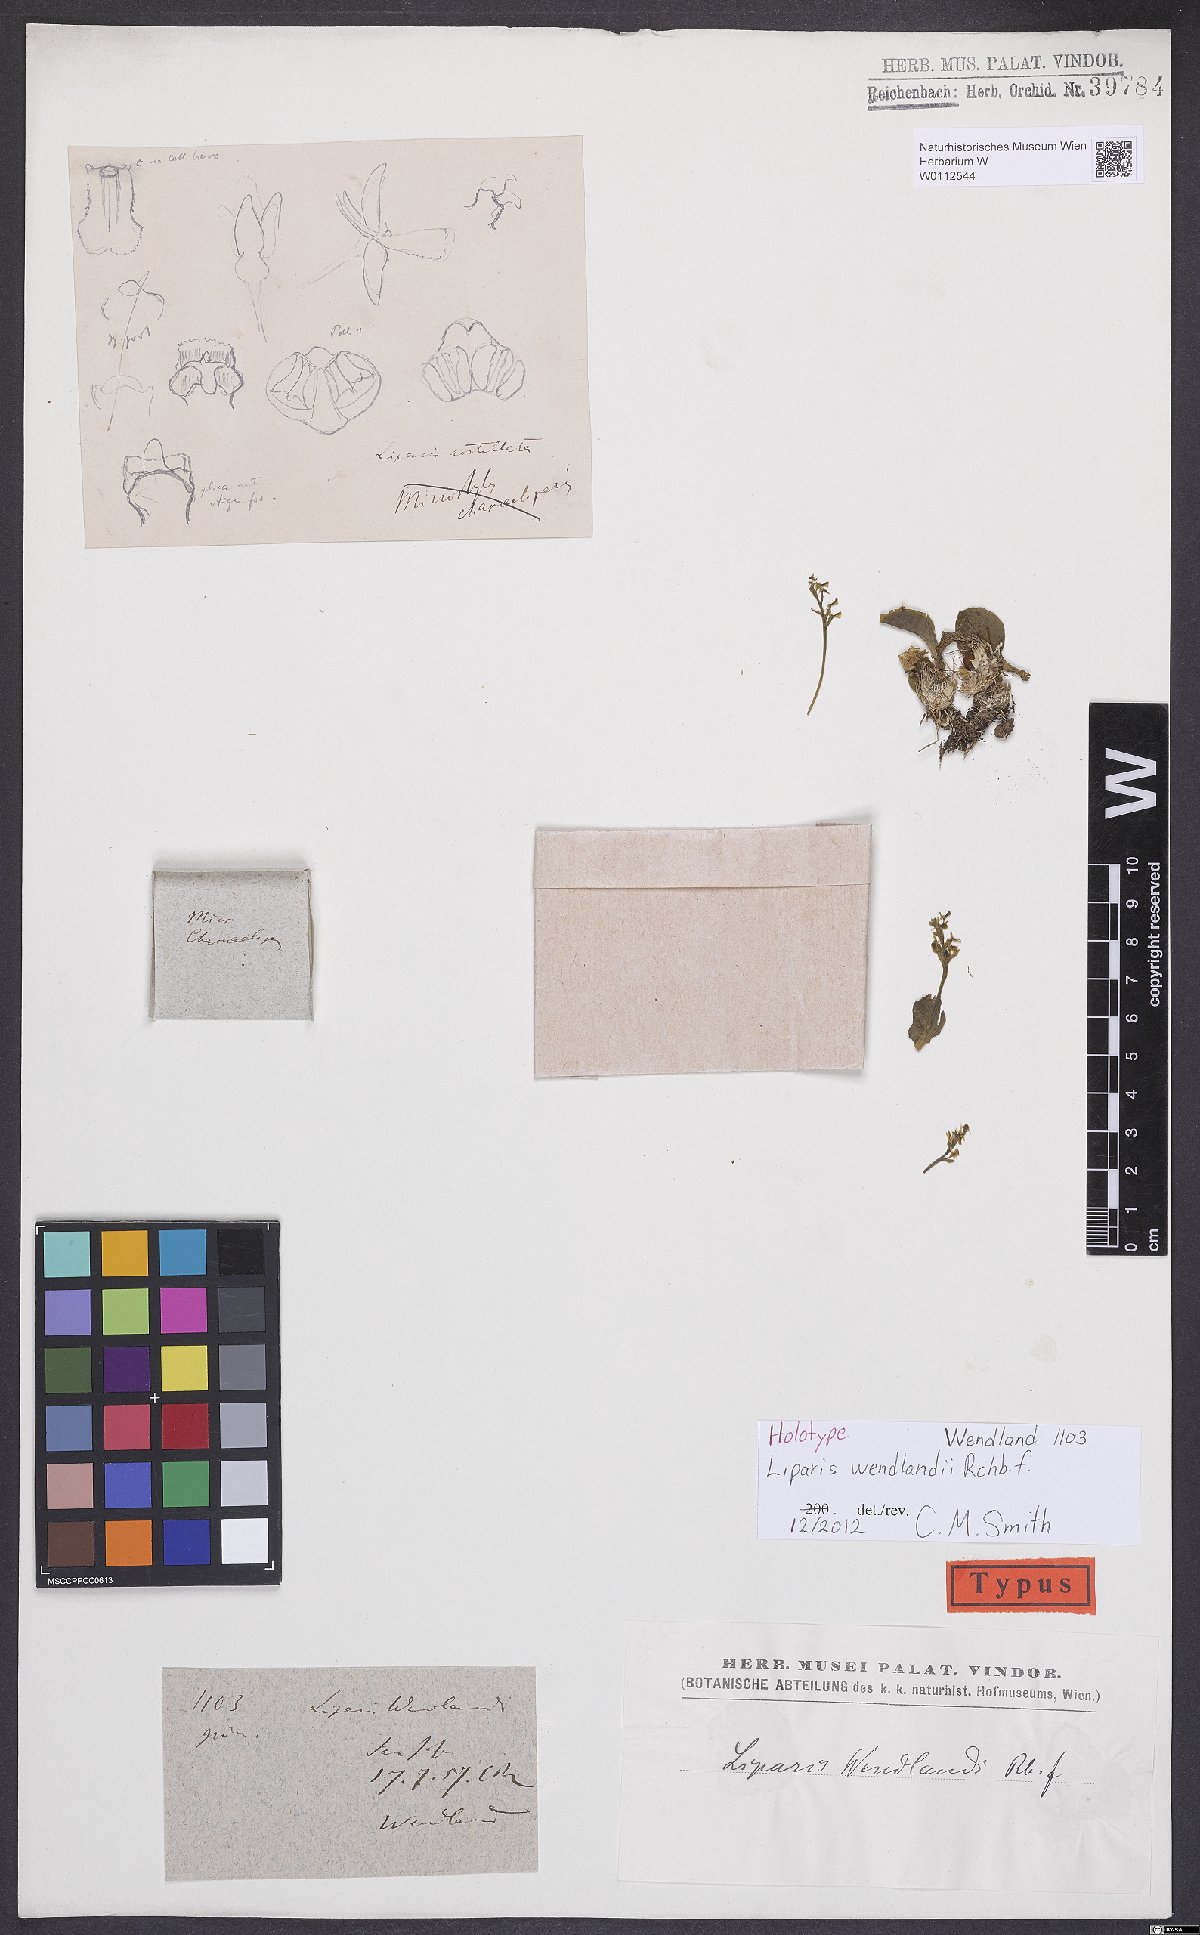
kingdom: Plantae
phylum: Tracheophyta
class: Liliopsida
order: Asparagales
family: Orchidaceae
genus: Crossoliparis
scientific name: Crossoliparis wendlandii
